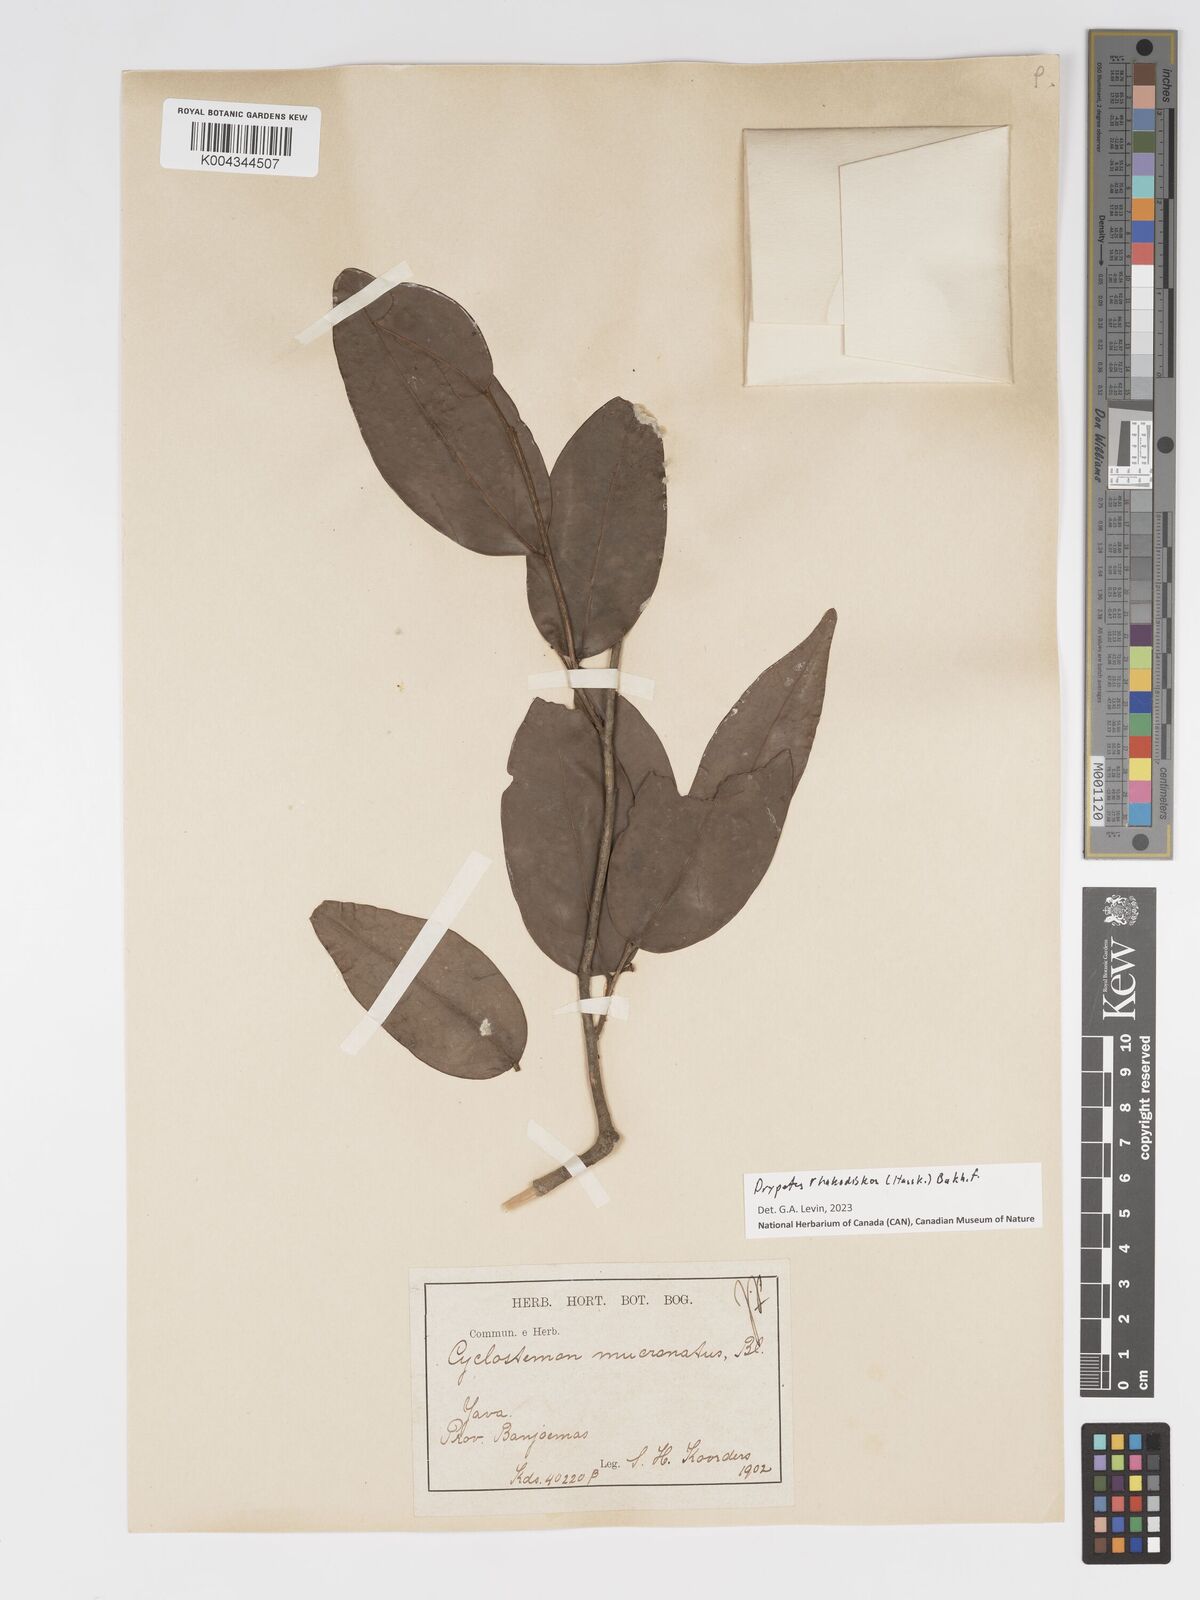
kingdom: Plantae
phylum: Tracheophyta
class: Magnoliopsida
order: Malpighiales
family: Putranjivaceae
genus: Drypetes
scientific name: Drypetes rhakodiskos
